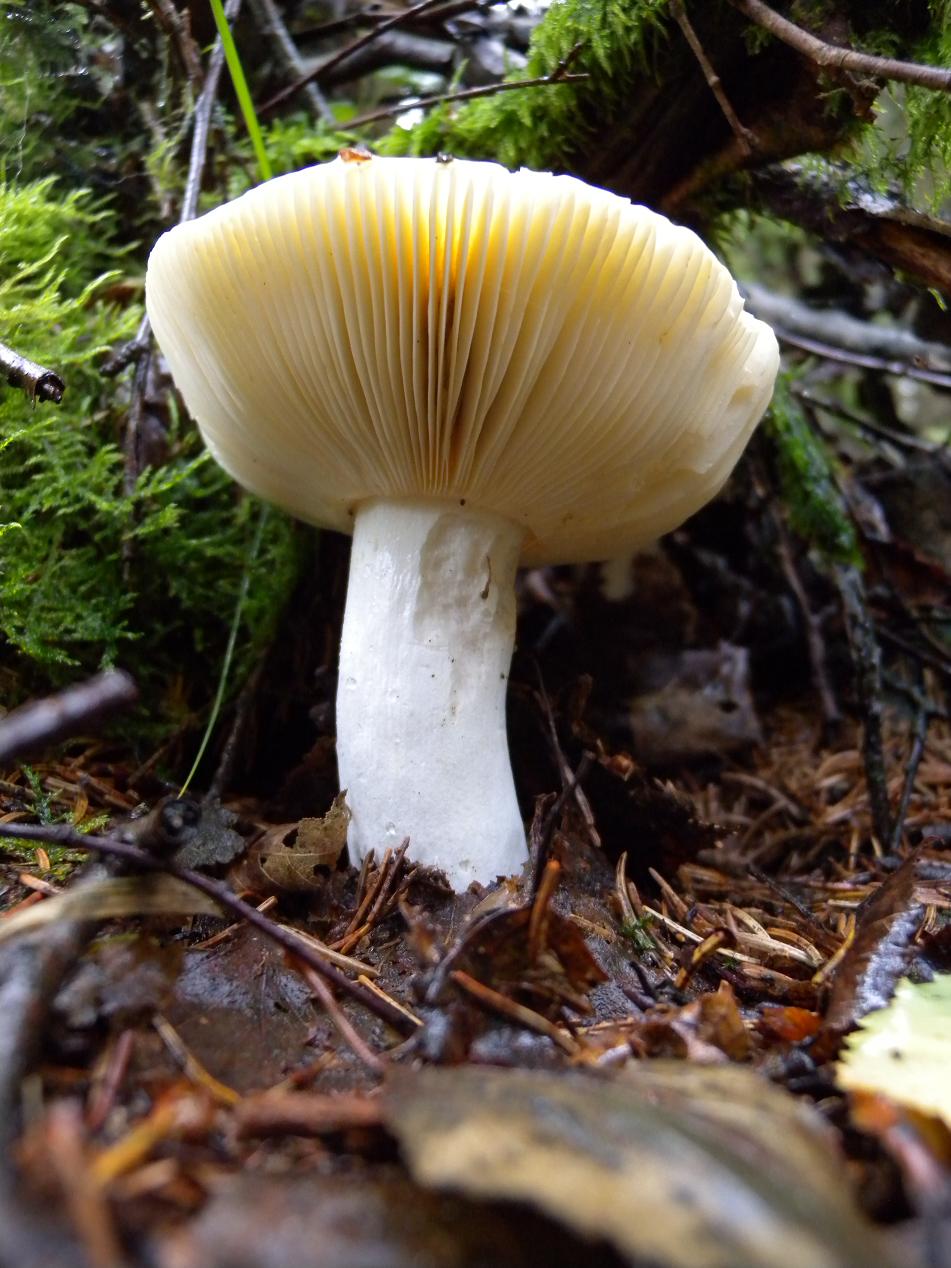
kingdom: Fungi
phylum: Basidiomycota
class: Agaricomycetes
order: Russulales
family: Russulaceae
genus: Russula
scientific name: Russula claroflava
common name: birke-skørhat
